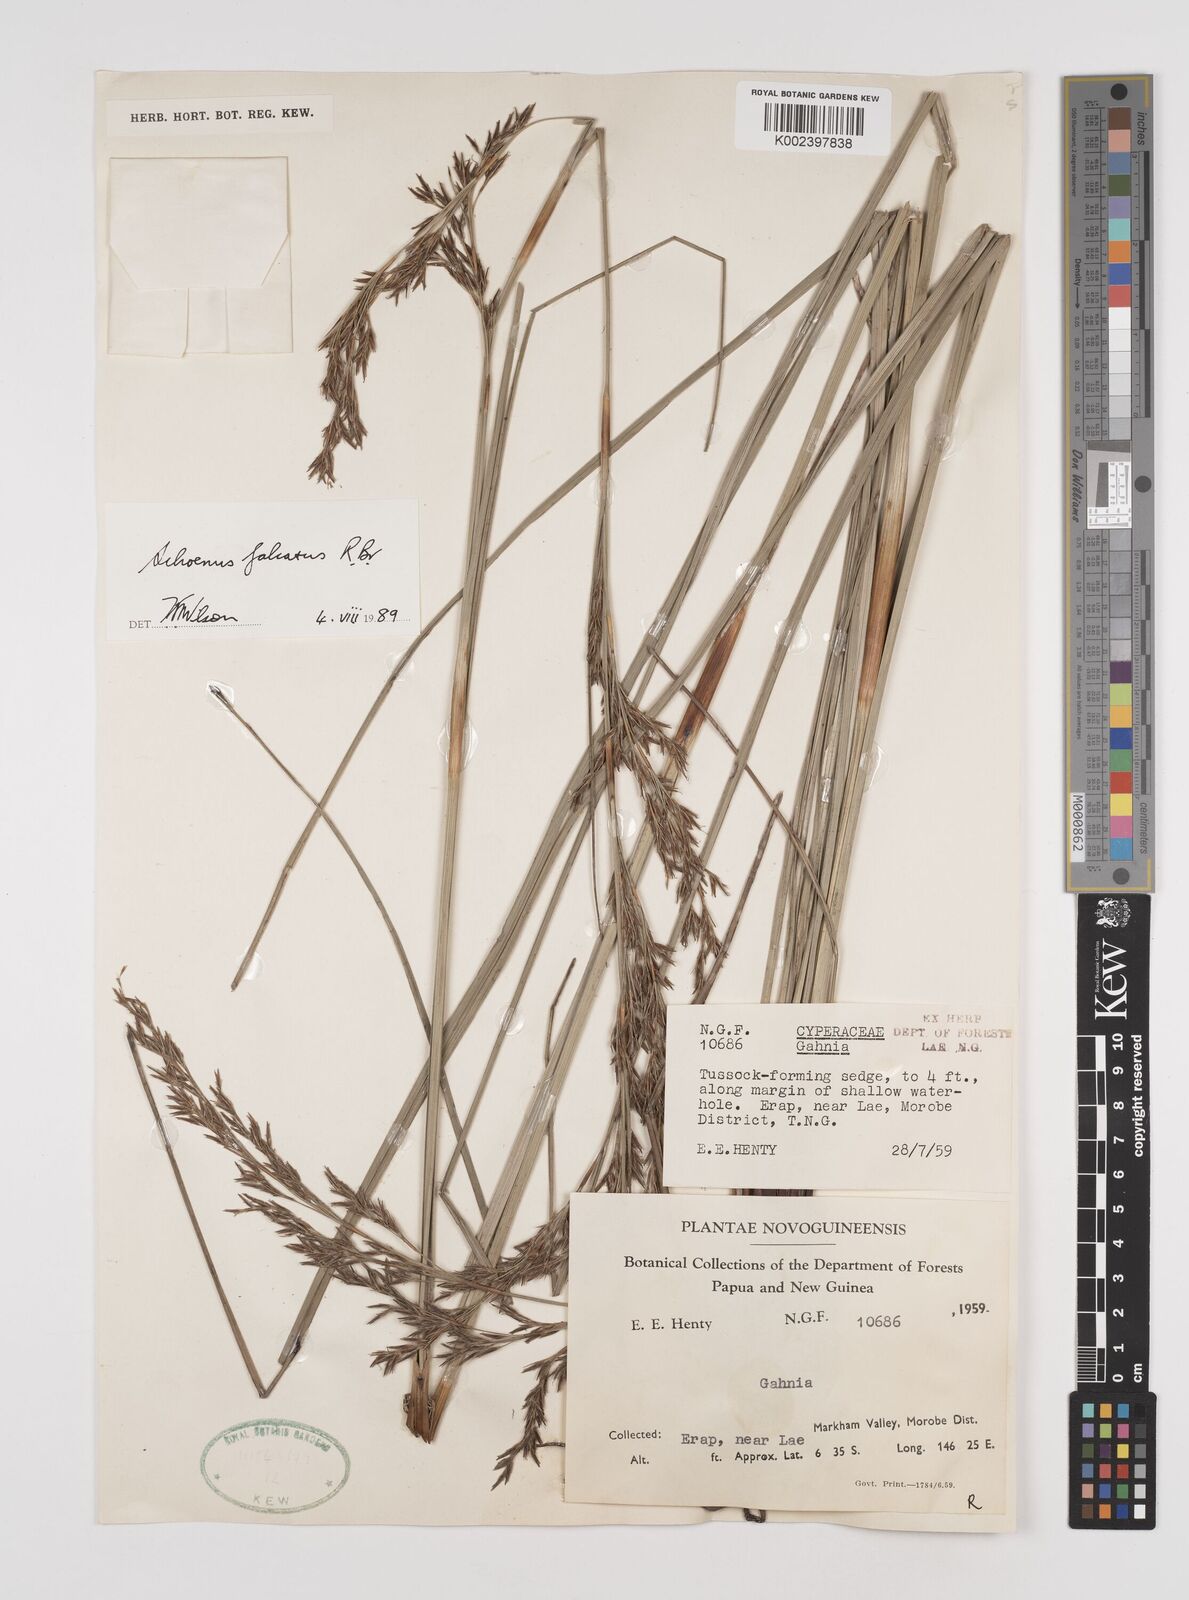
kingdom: Plantae
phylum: Tracheophyta
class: Liliopsida
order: Poales
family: Cyperaceae
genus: Schoenus
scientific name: Schoenus falcatus
